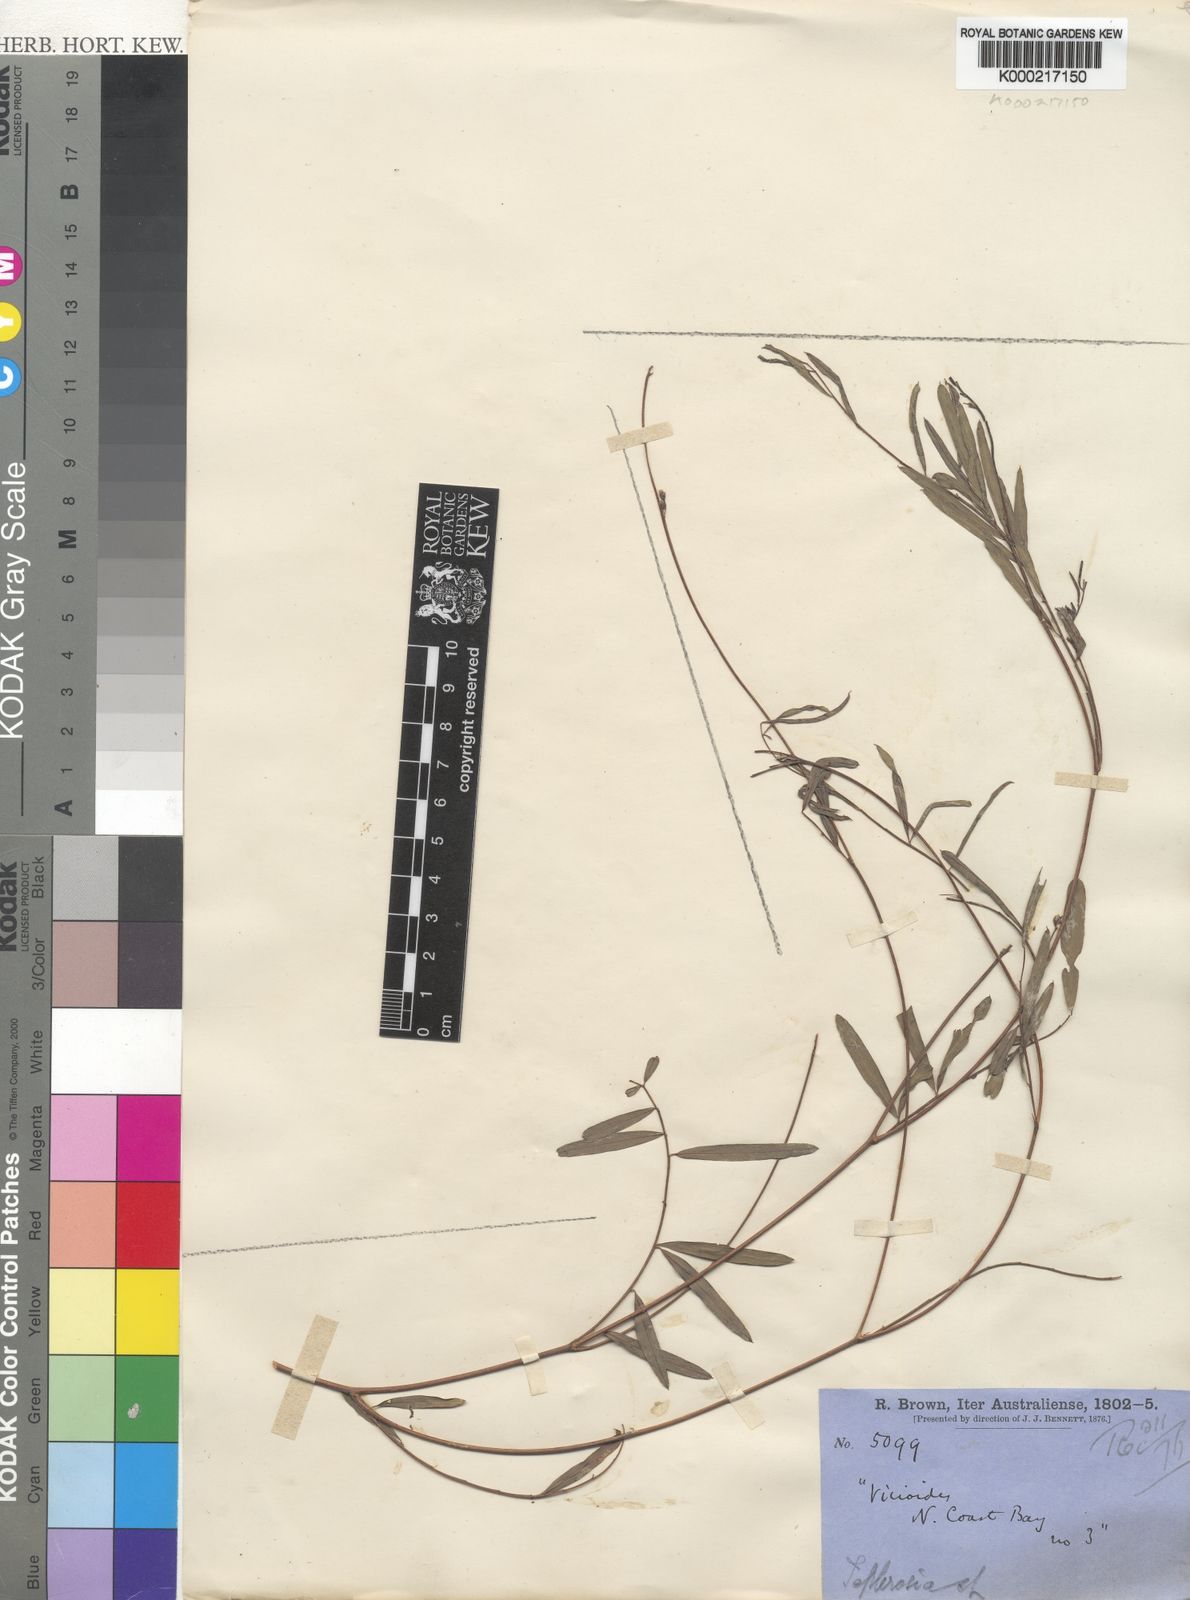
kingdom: Plantae
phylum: Tracheophyta
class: Magnoliopsida
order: Fabales
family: Fabaceae
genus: Tephrosia
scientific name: Tephrosia
